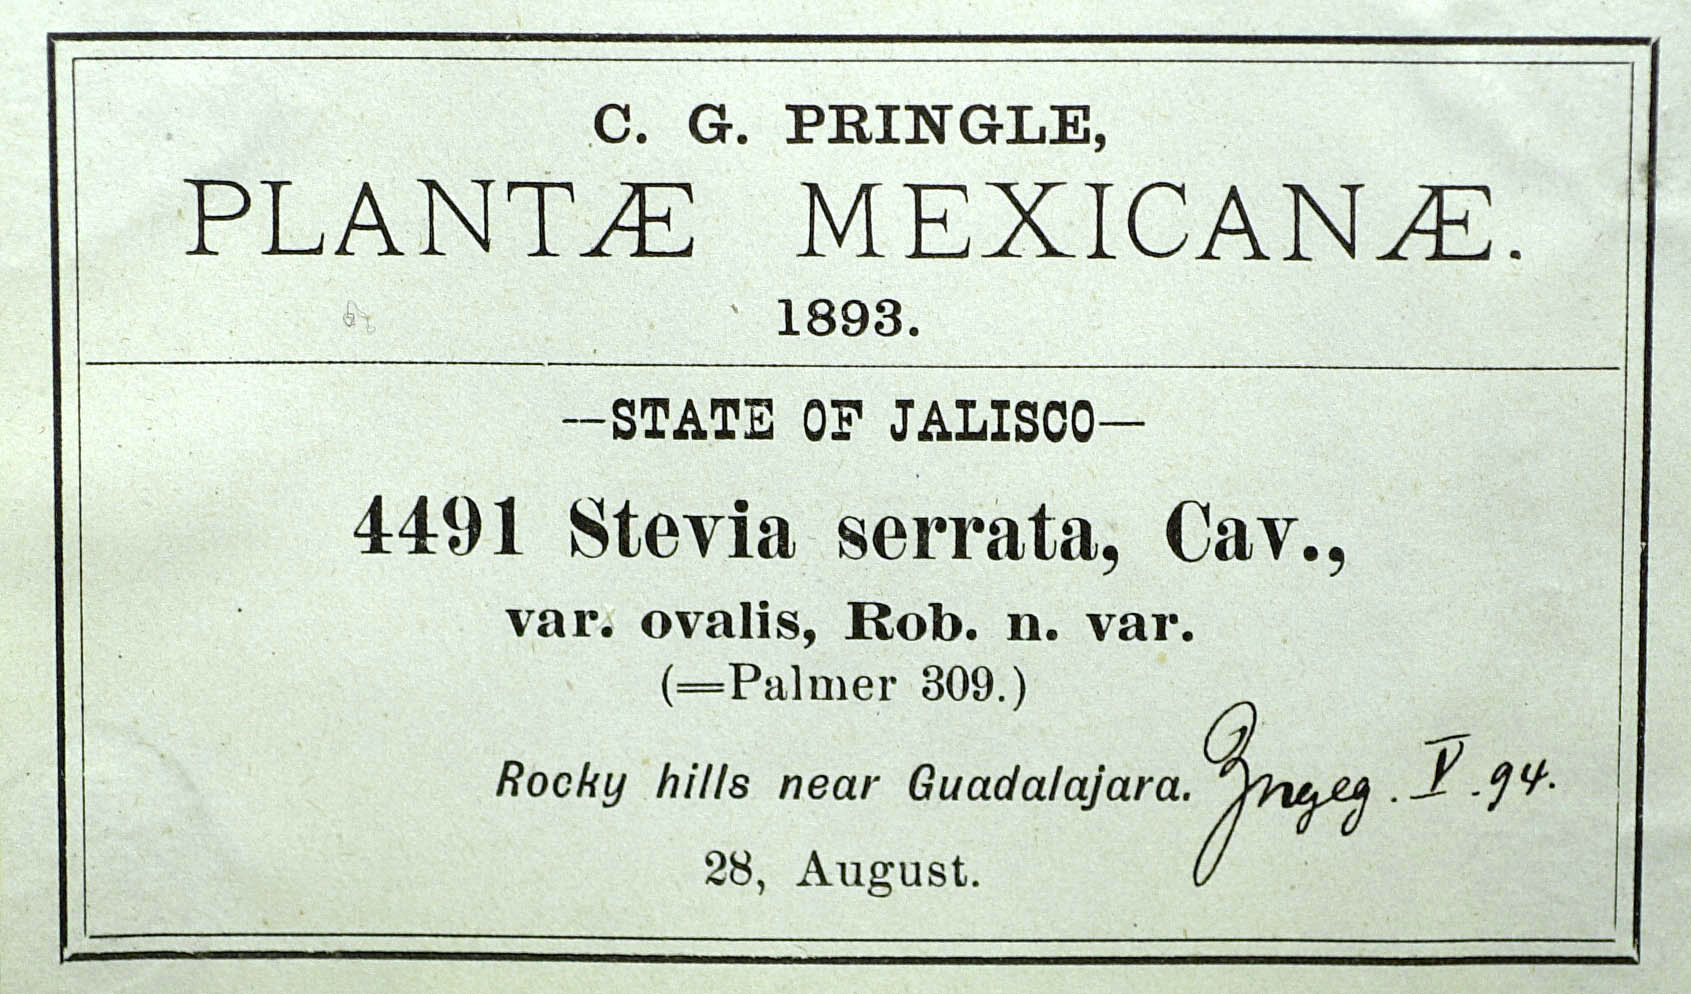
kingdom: Plantae
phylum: Tracheophyta
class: Magnoliopsida
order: Asterales
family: Asteraceae
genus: Stevia
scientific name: Stevia ovalis
